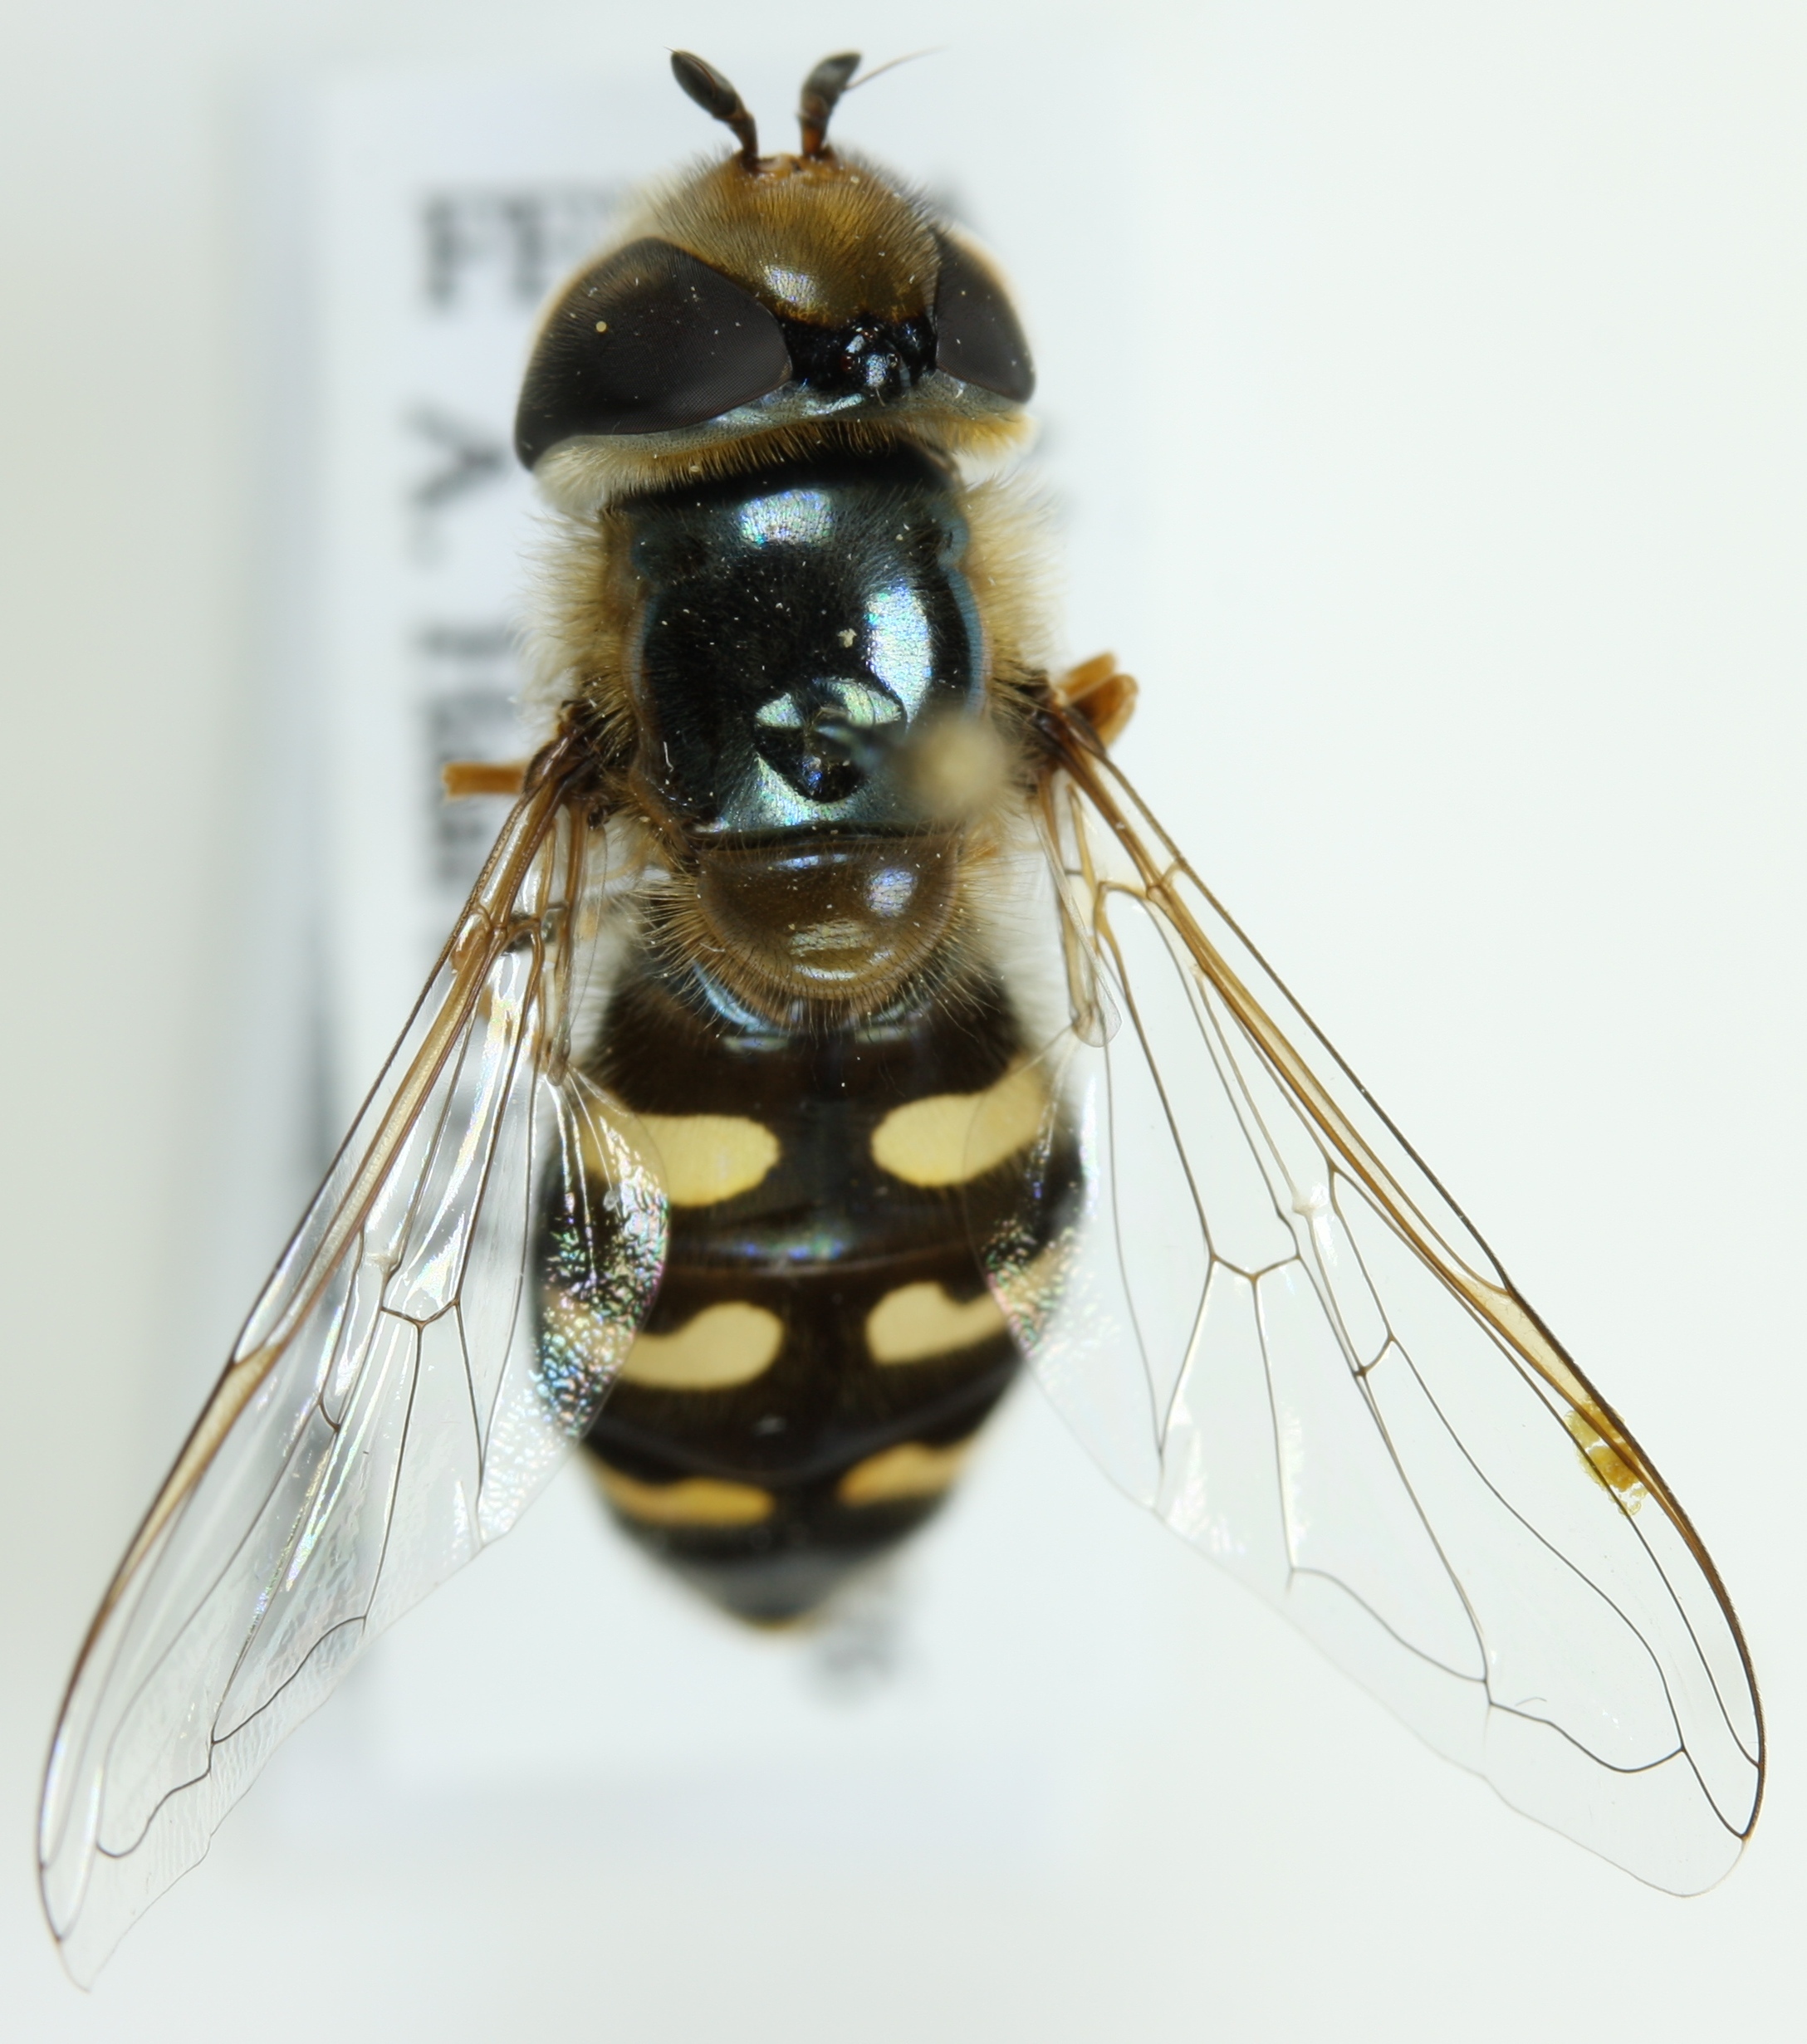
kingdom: Animalia
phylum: Arthropoda
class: Insecta
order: Diptera
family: Syrphidae
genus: Scaeva
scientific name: Scaeva pyrastri
